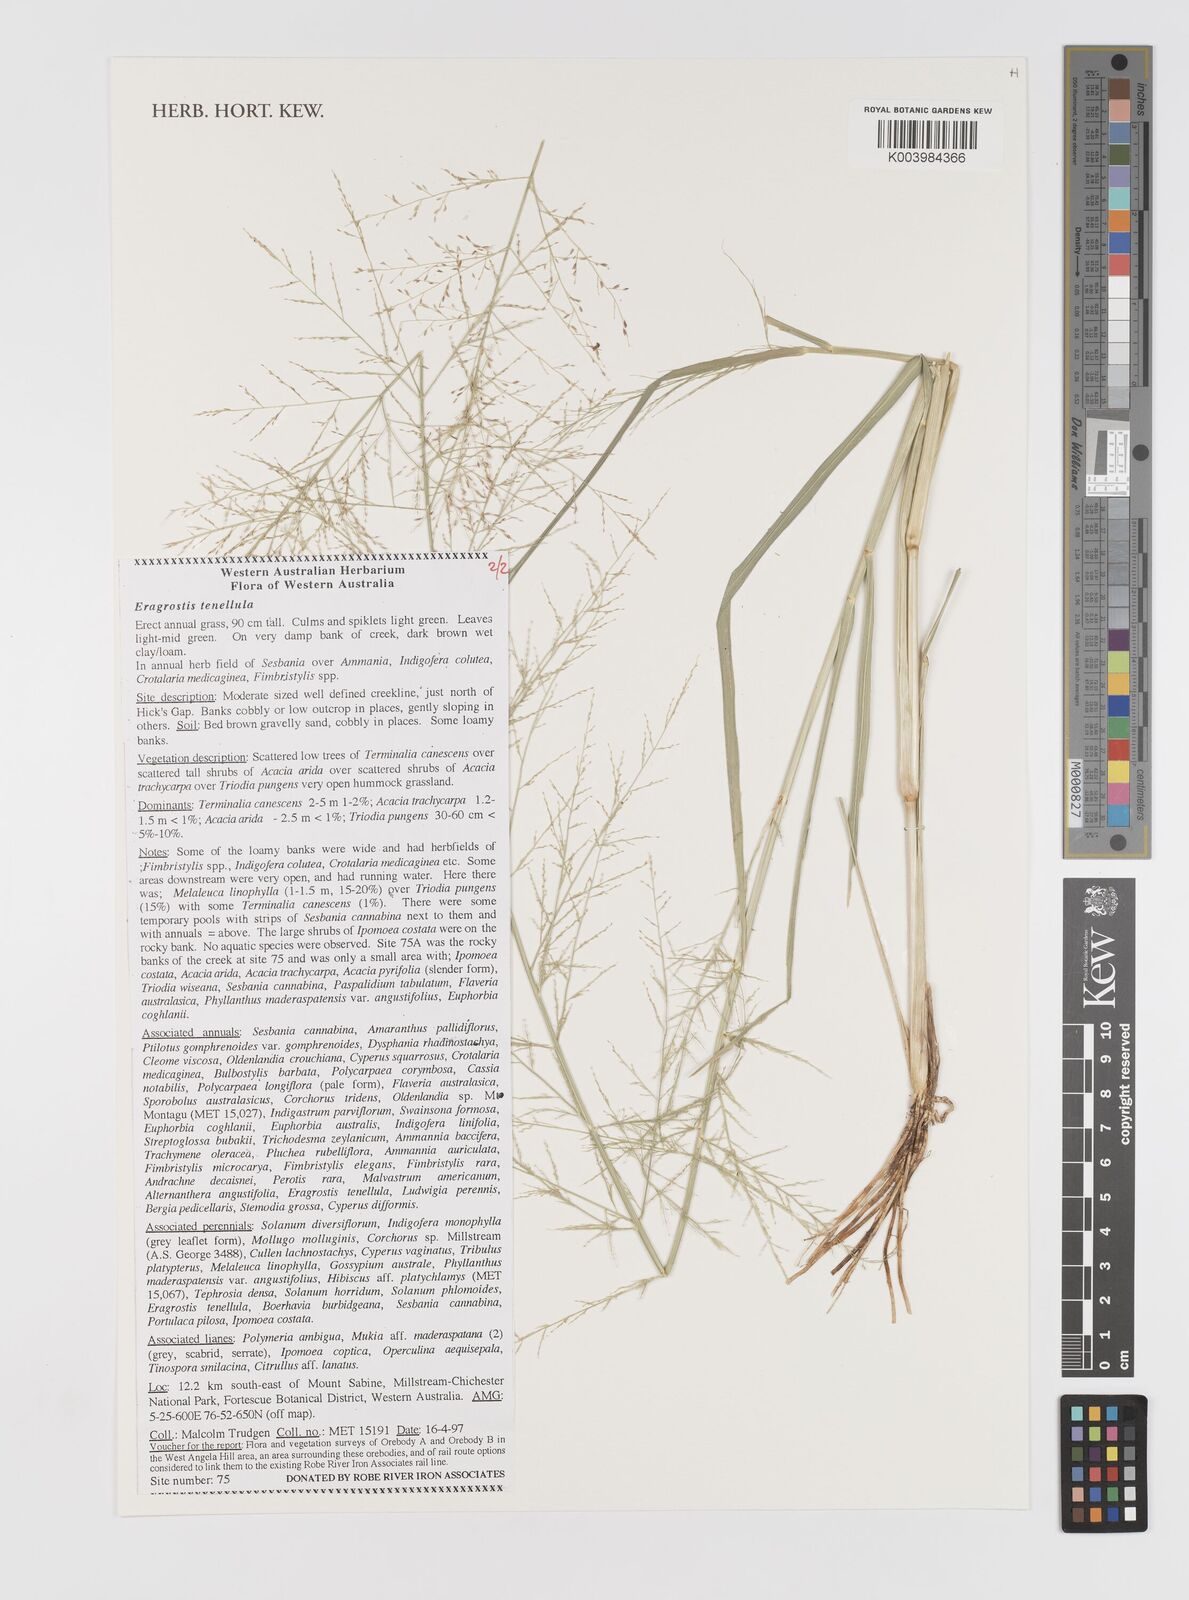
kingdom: Plantae
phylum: Tracheophyta
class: Liliopsida
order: Poales
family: Poaceae
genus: Eragrostis
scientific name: Eragrostis tenellula
